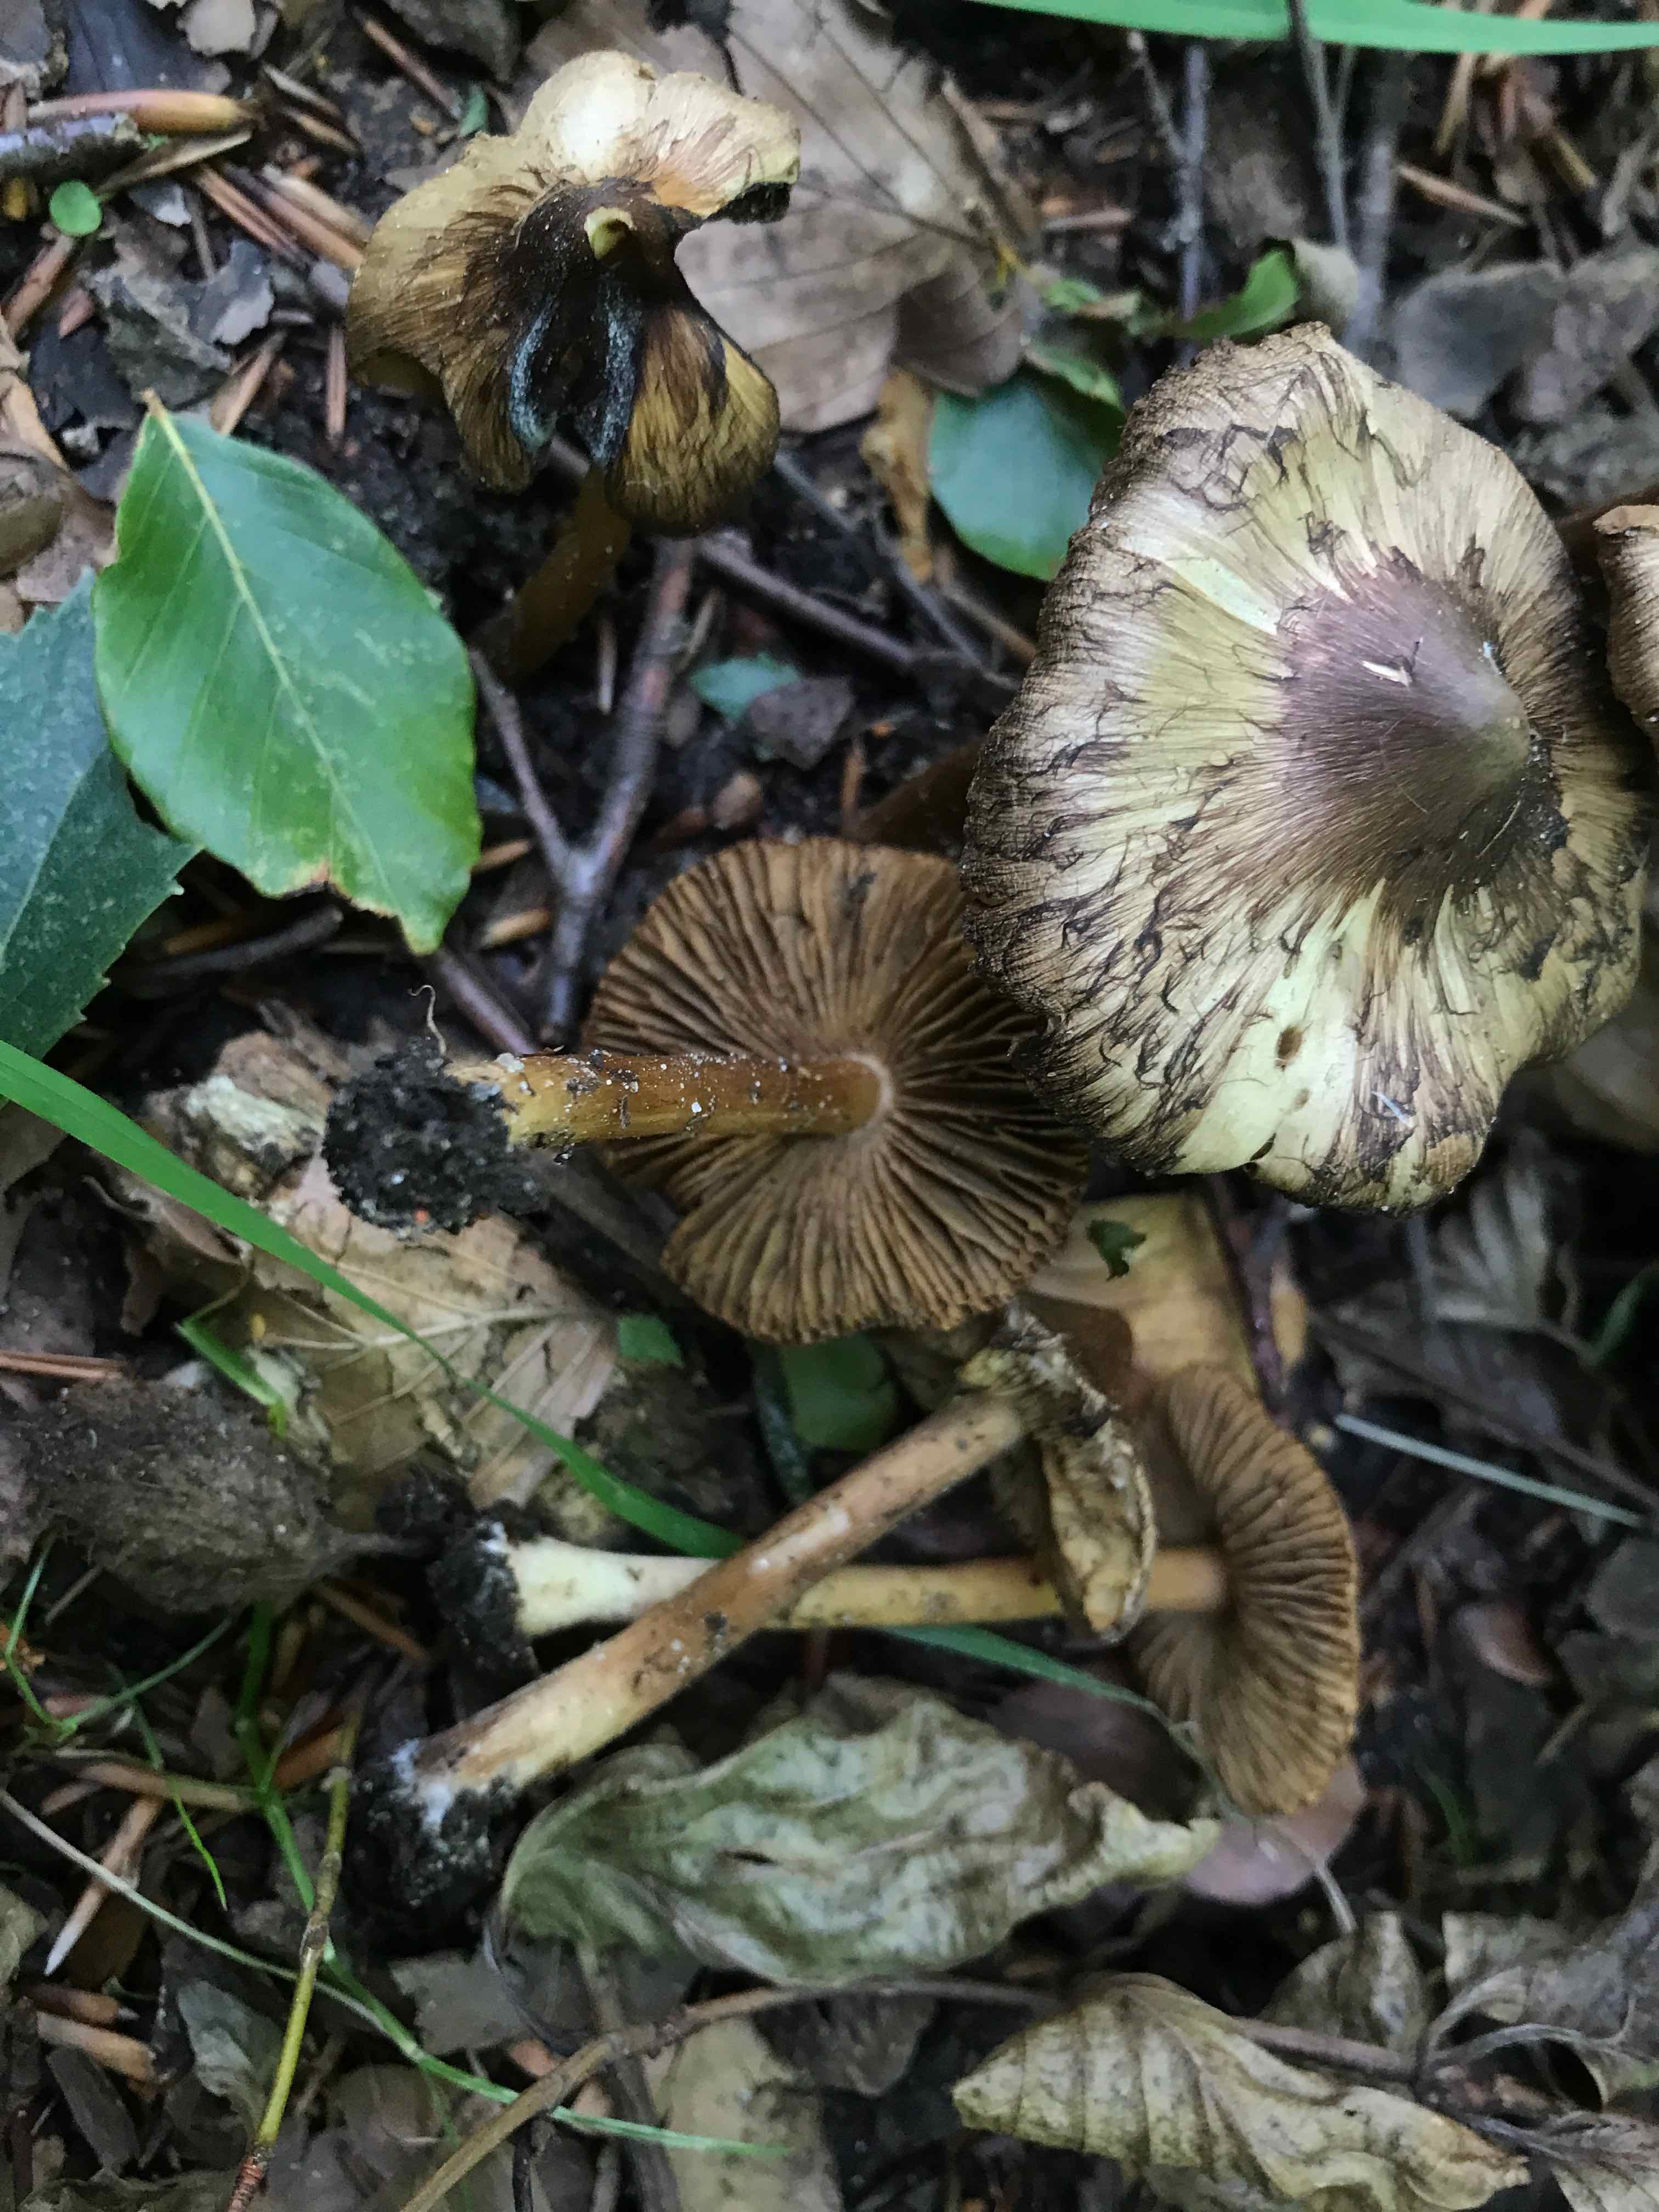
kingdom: Fungi
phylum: Basidiomycota
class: Agaricomycetes
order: Agaricales
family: Inocybaceae
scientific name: Inocybaceae
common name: trævlhatfamilien
